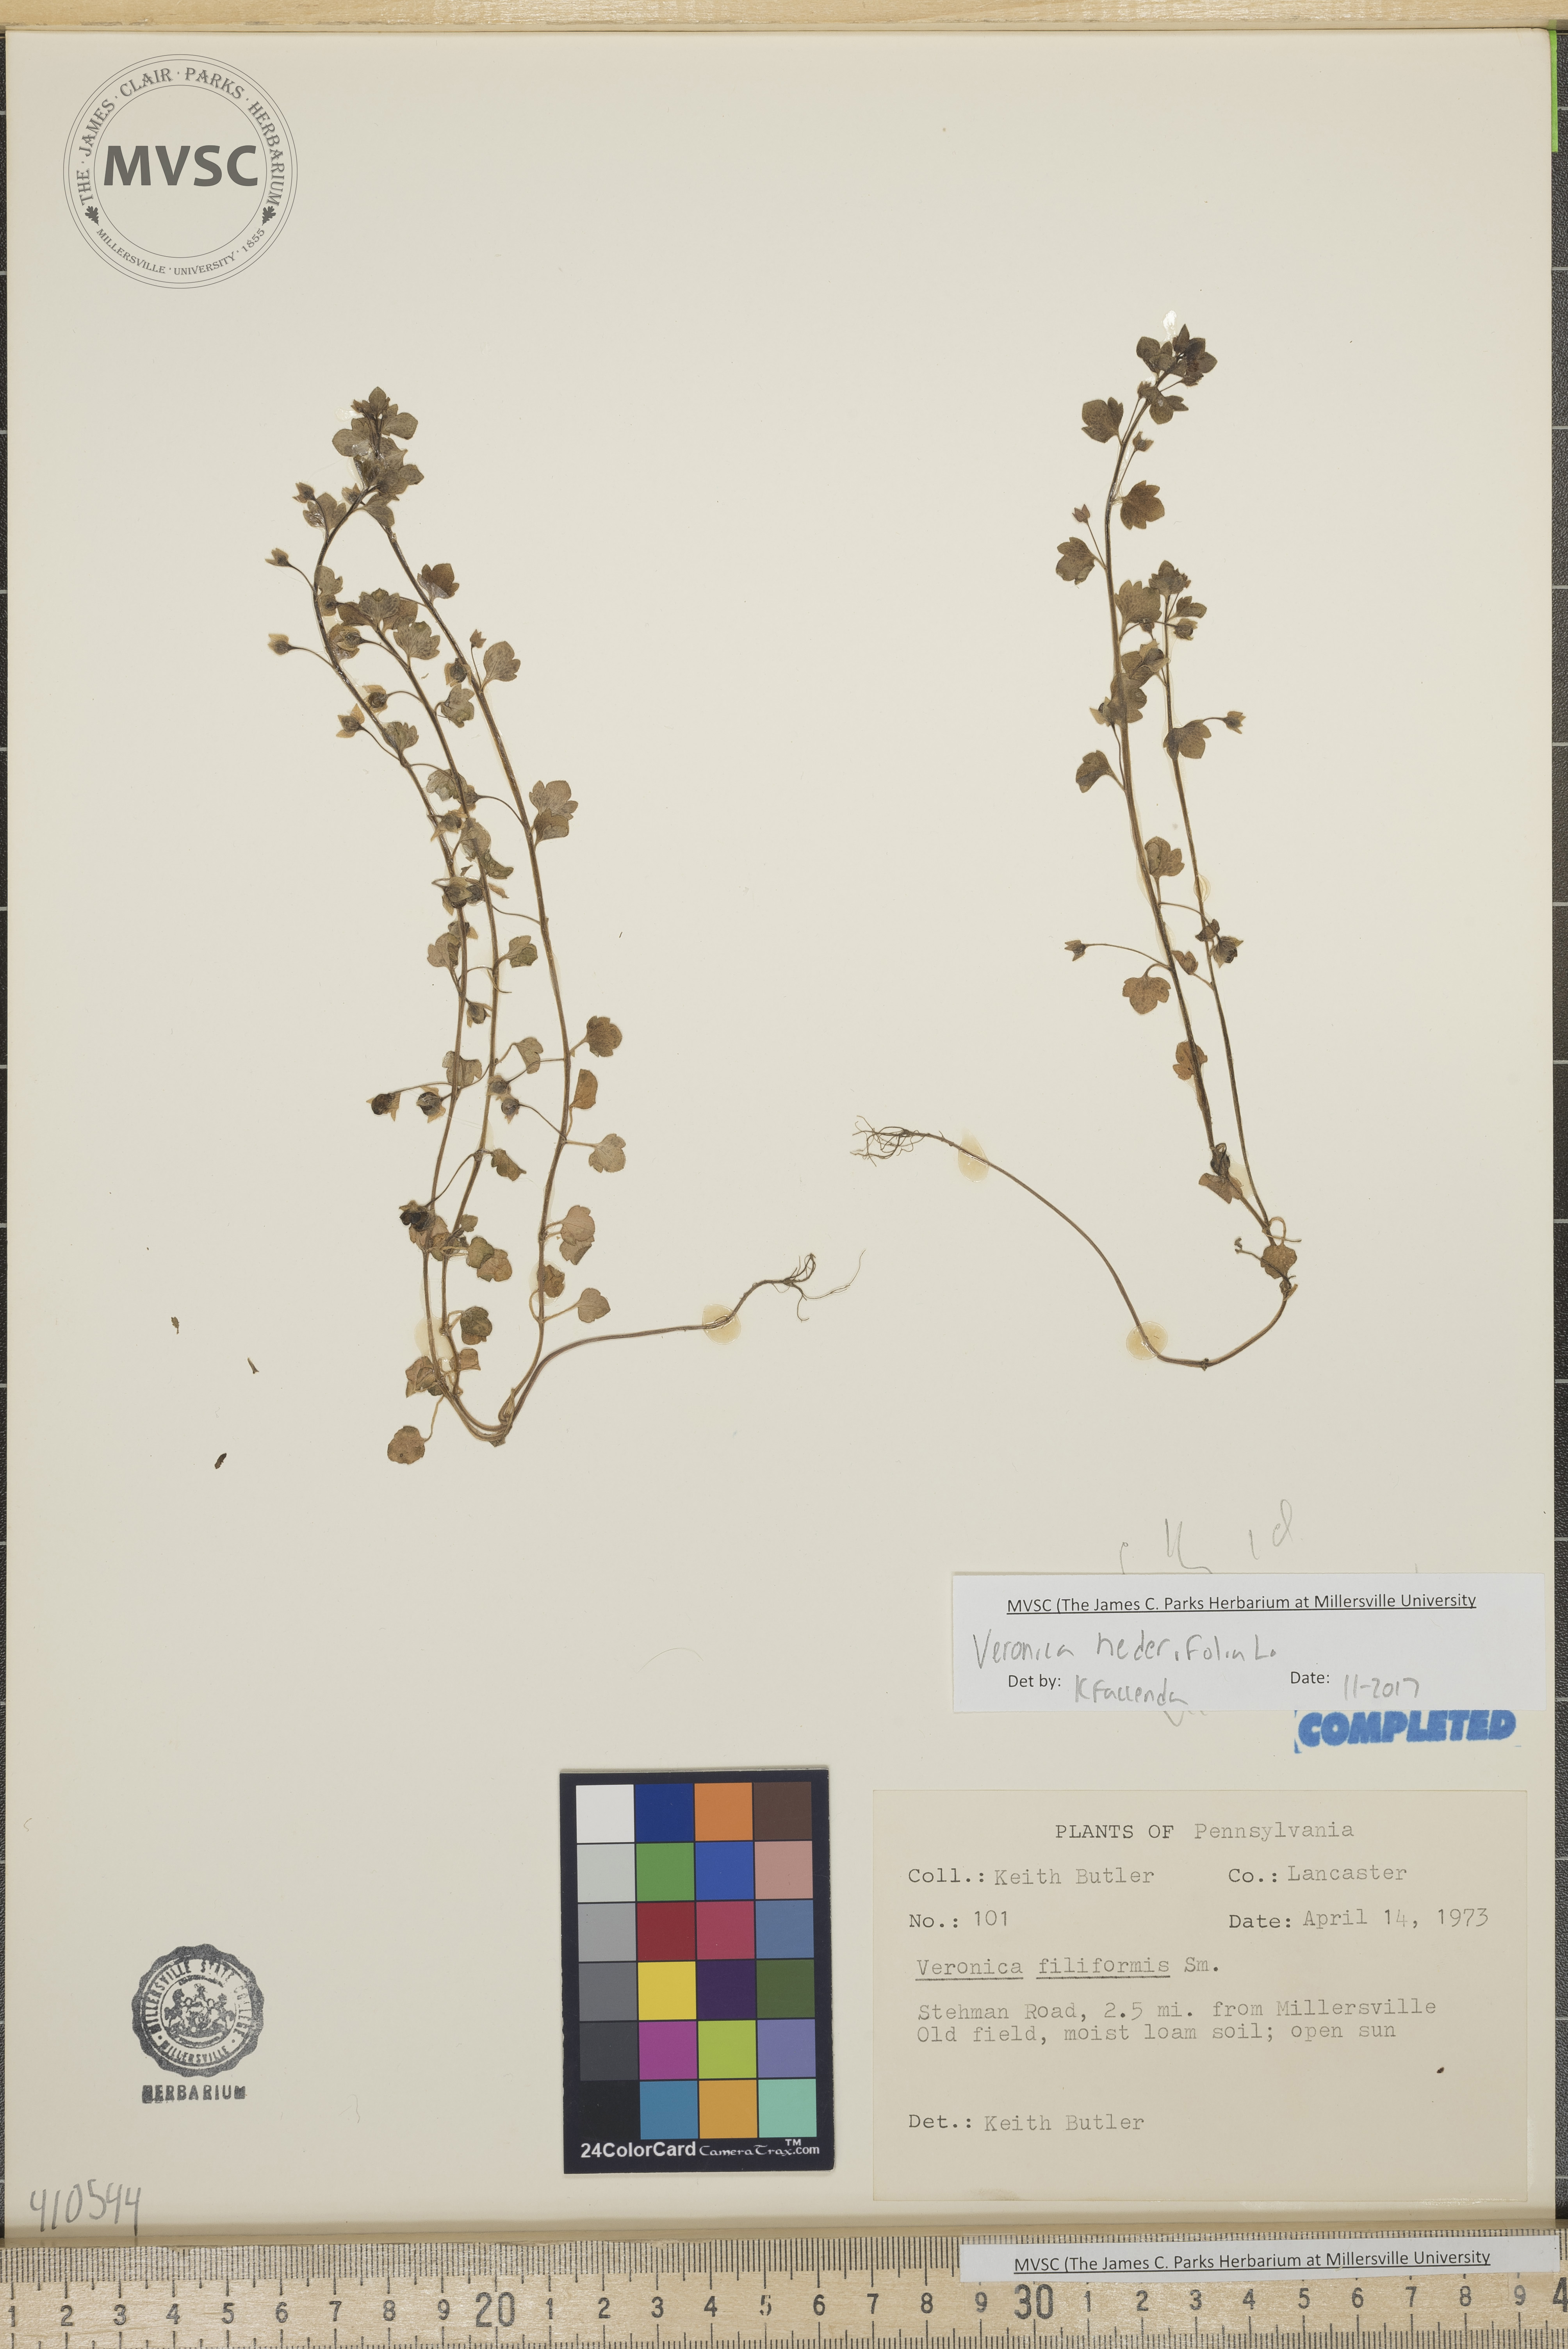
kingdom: Plantae
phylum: Tracheophyta
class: Magnoliopsida
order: Lamiales
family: Plantaginaceae
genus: Veronica
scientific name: Veronica hederifolia
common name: Ivy-leaved speedwell
